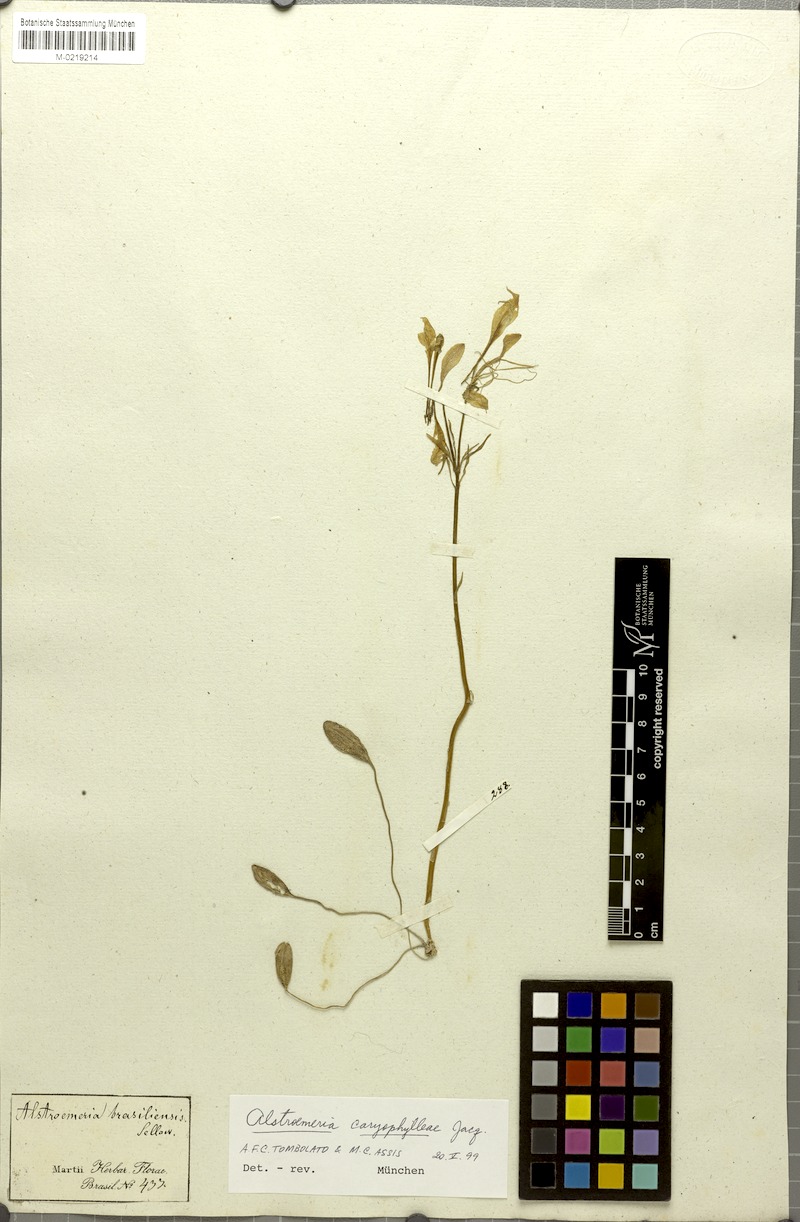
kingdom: Plantae
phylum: Tracheophyta
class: Liliopsida
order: Liliales
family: Alstroemeriaceae
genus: Alstroemeria
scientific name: Alstroemeria caryophyllaea
